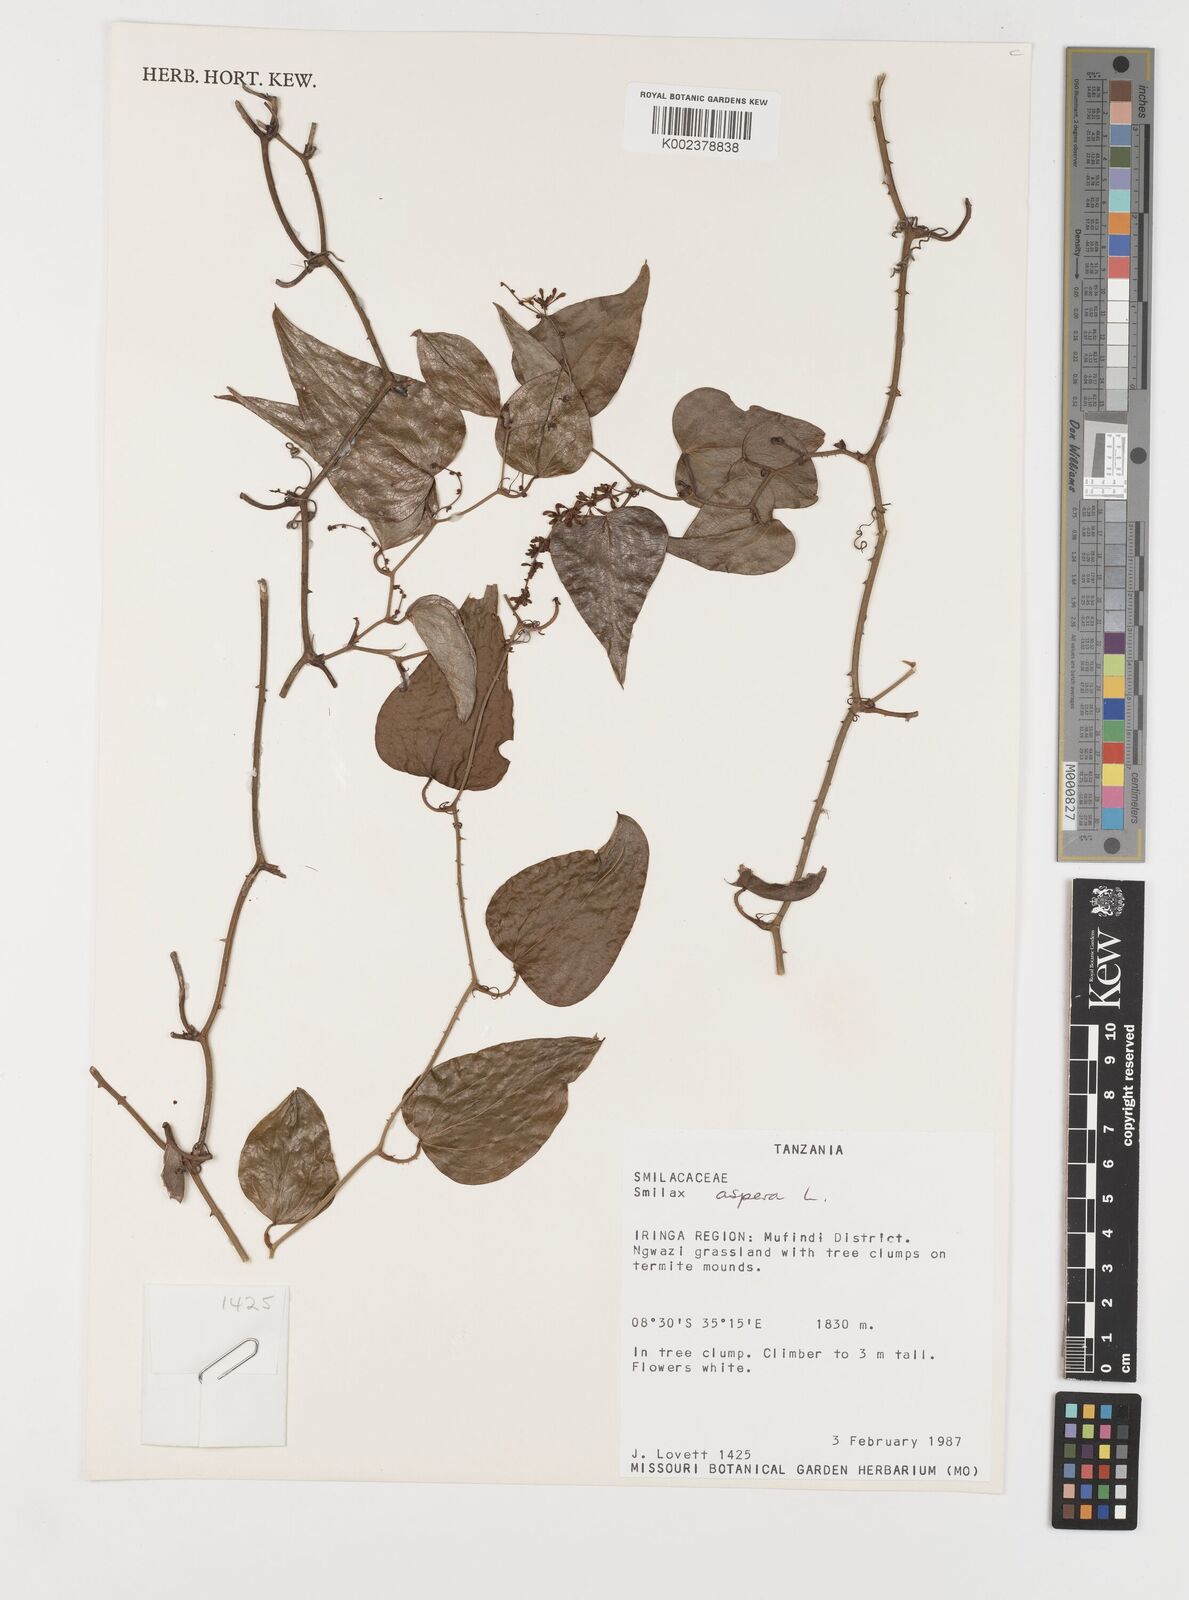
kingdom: Plantae
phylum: Tracheophyta
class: Liliopsida
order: Liliales
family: Smilacaceae
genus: Smilax
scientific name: Smilax aspera
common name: Common smilax
